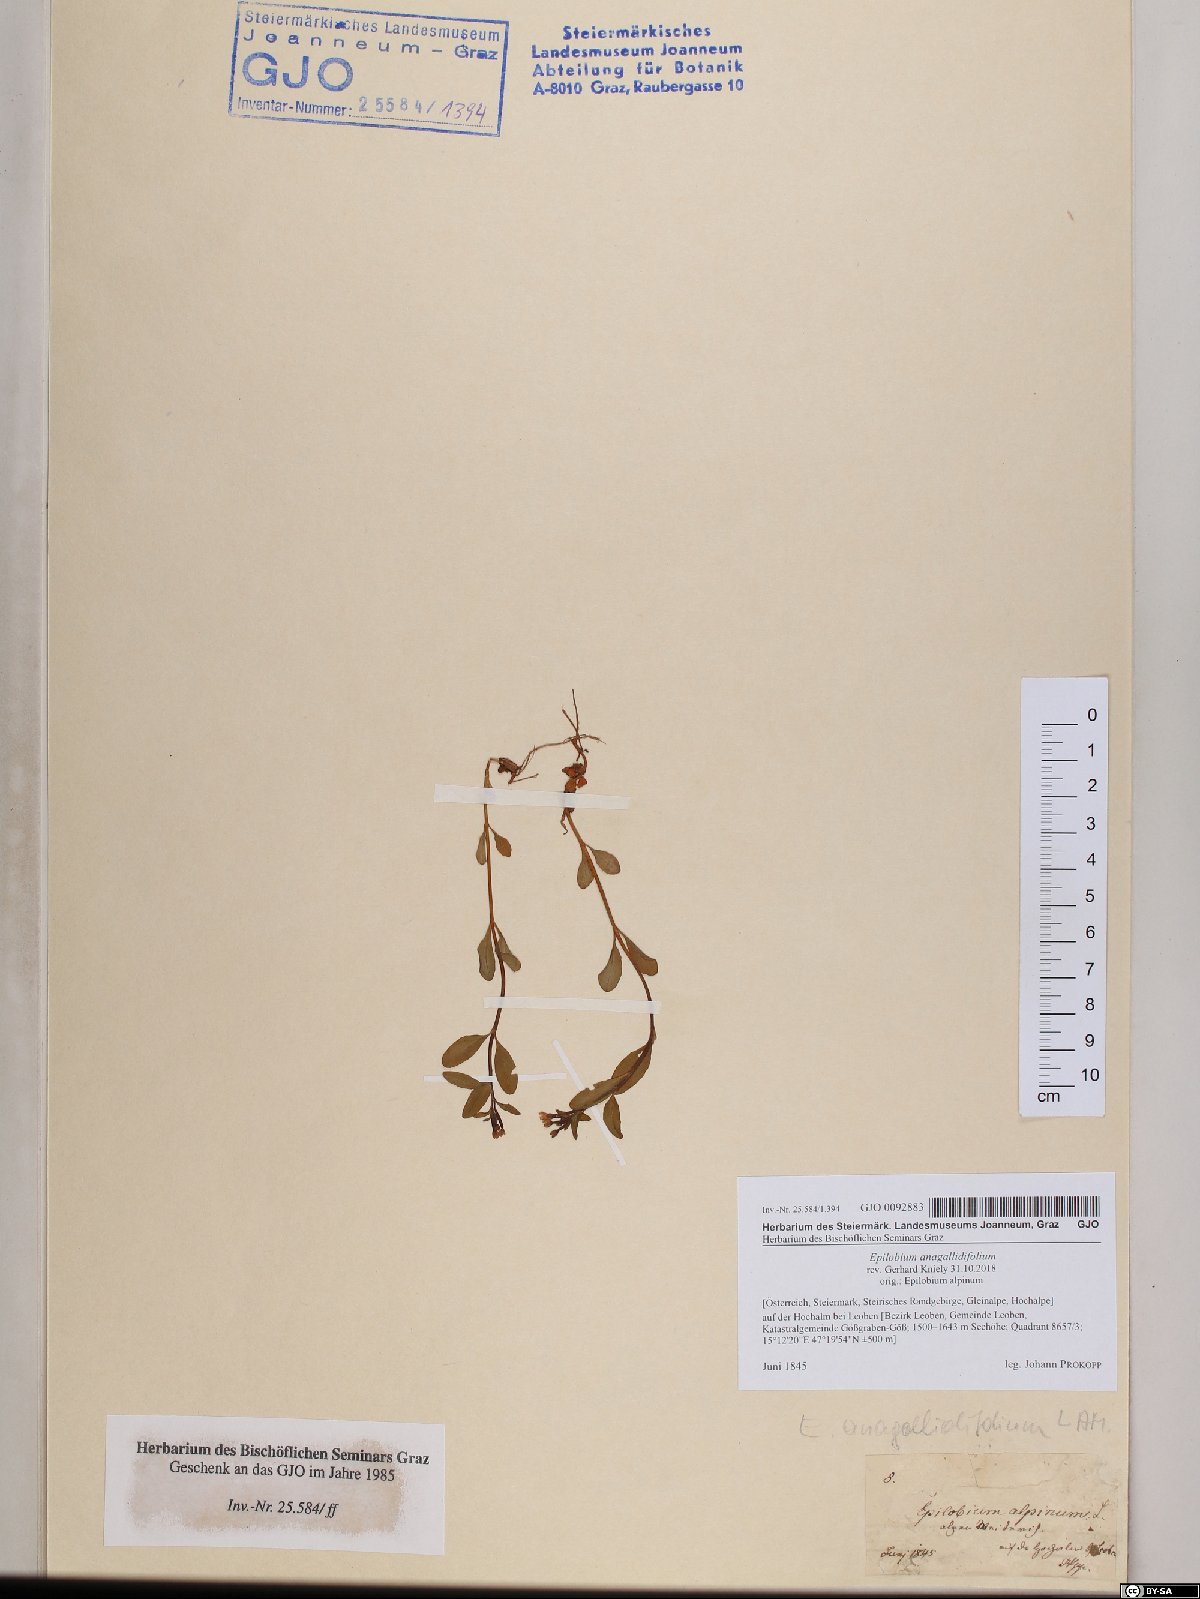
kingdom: Plantae
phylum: Tracheophyta
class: Magnoliopsida
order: Myrtales
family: Onagraceae
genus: Epilobium
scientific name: Epilobium anagallidifolium
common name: Alpine willowherb
